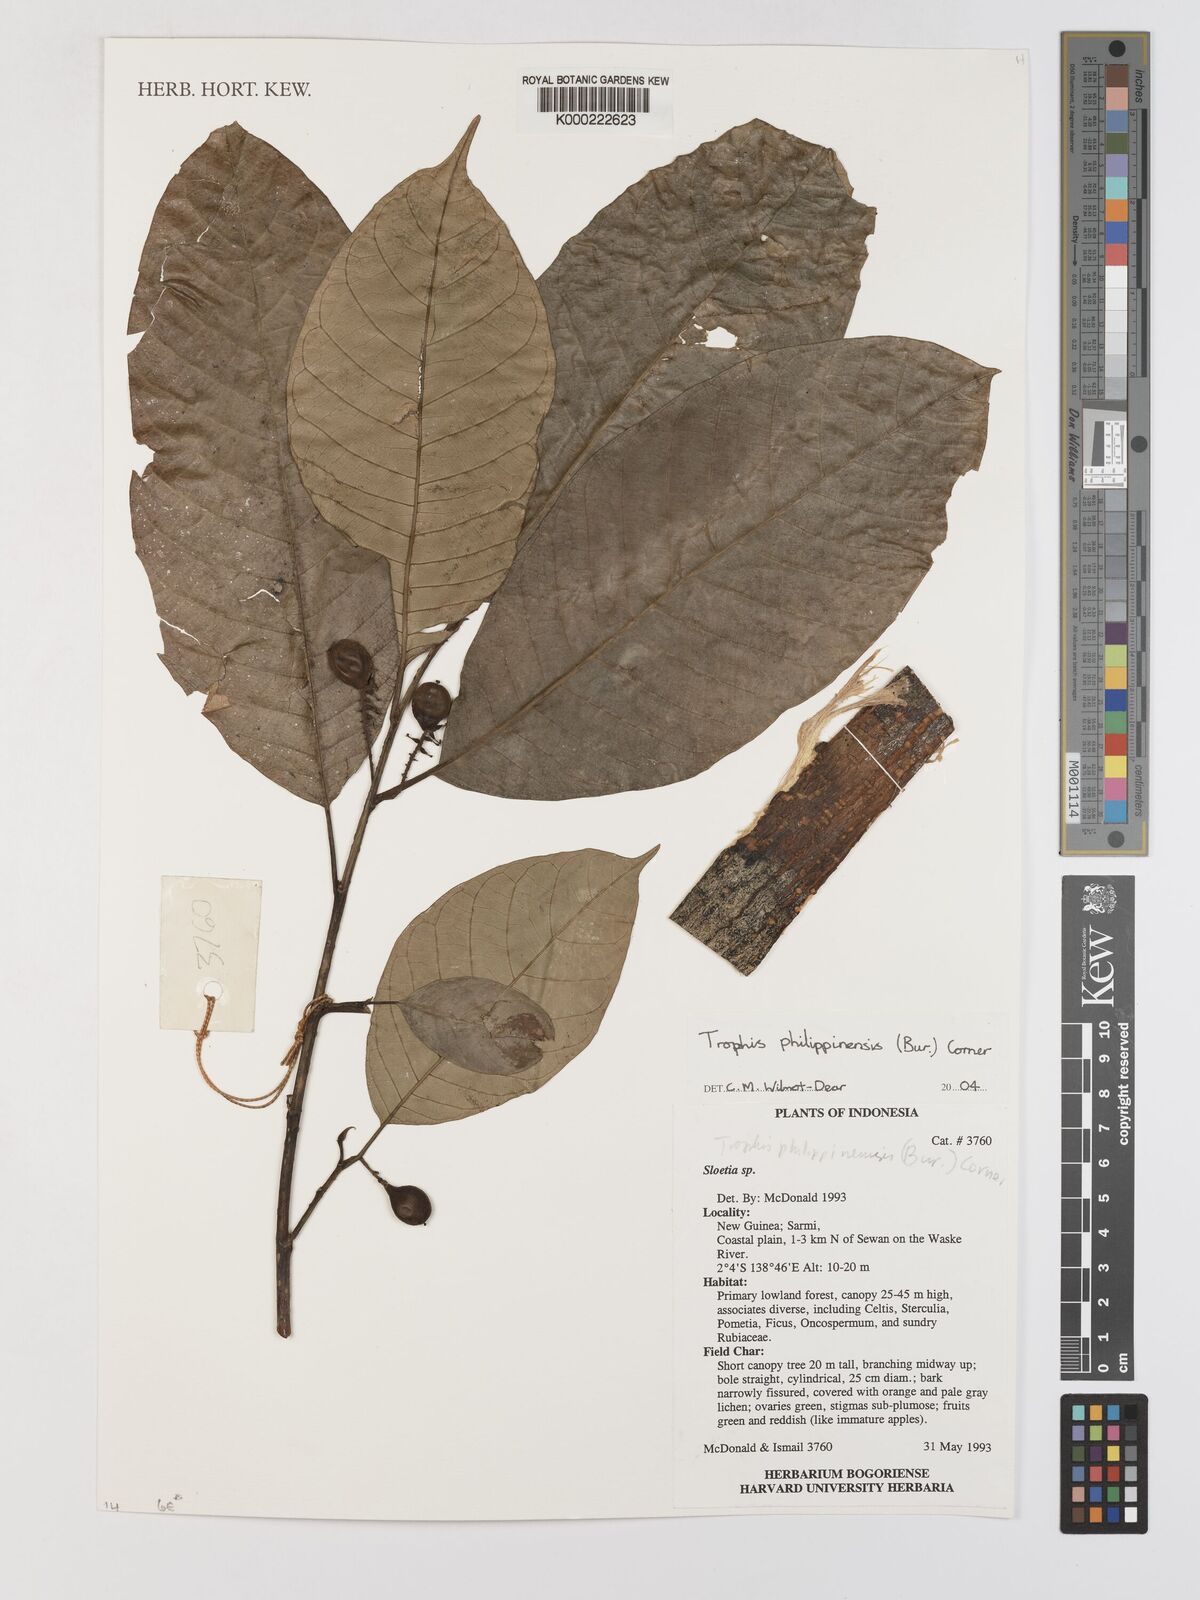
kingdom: Plantae
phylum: Tracheophyta
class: Magnoliopsida
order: Rosales
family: Moraceae
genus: Paratrophis
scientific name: Paratrophis philippinensis
